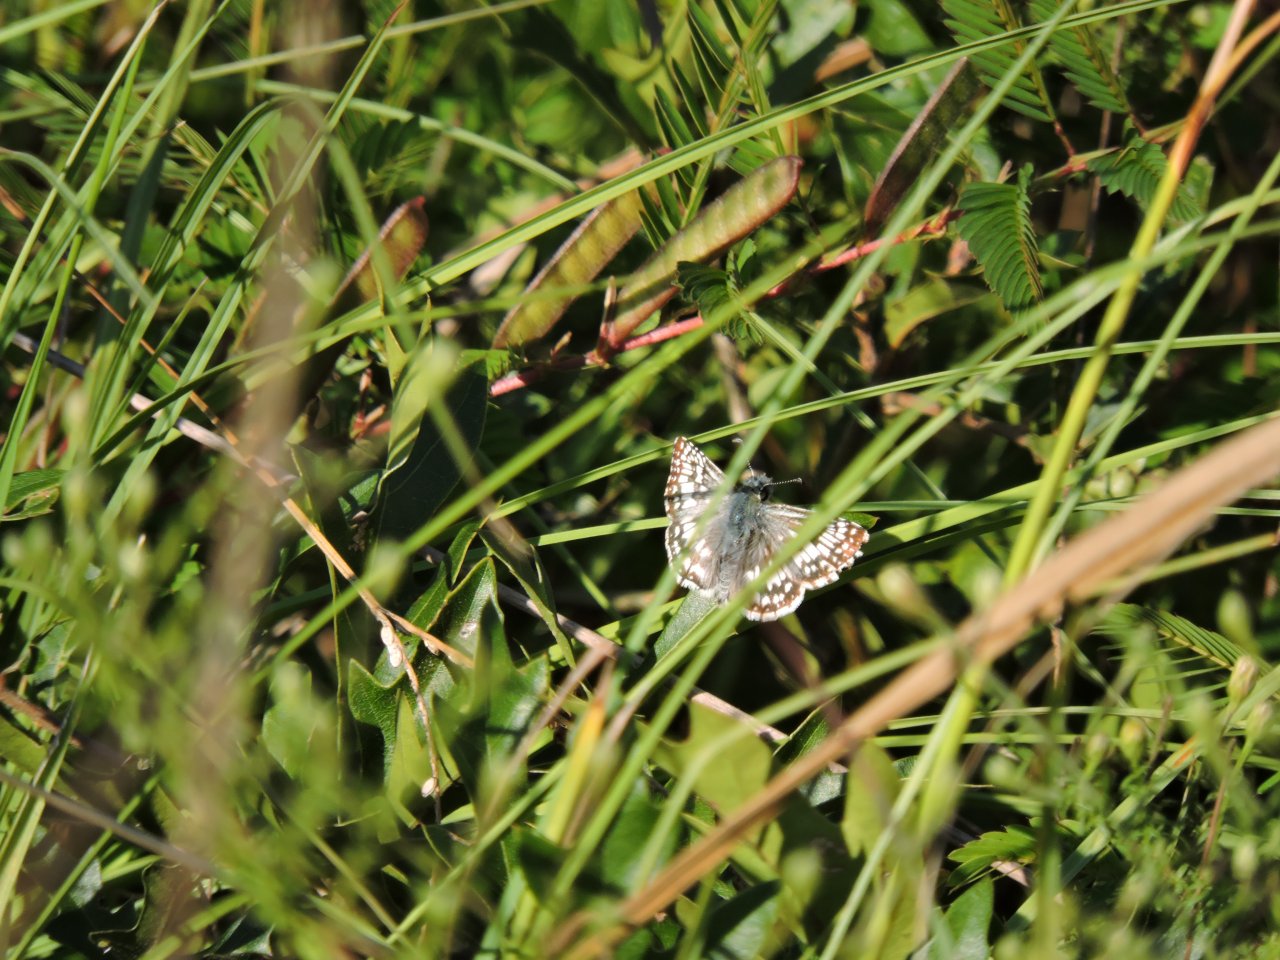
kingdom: Animalia
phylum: Arthropoda
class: Insecta
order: Lepidoptera
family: Hesperiidae
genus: Pyrgus
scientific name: Pyrgus
